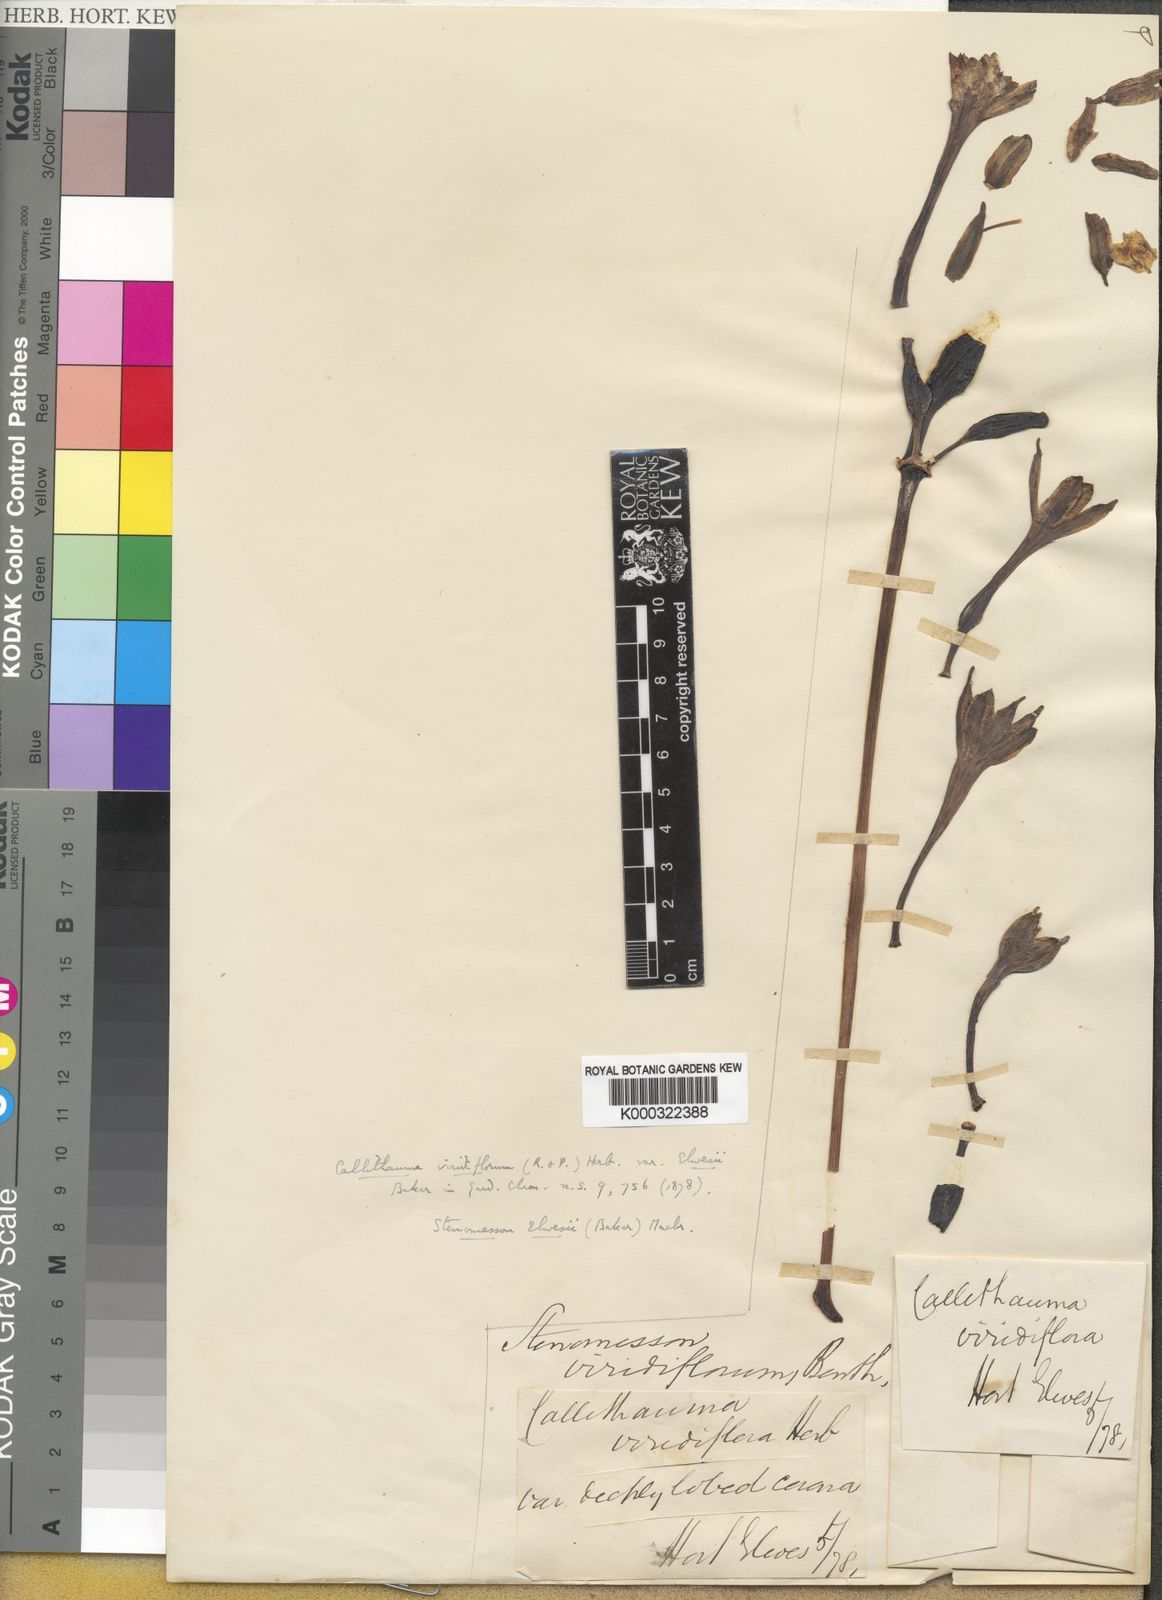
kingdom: Plantae
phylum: Tracheophyta
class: Liliopsida
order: Asparagales
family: Amaryllidaceae
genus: Paramongaia
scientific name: Paramongaia viridiflora
